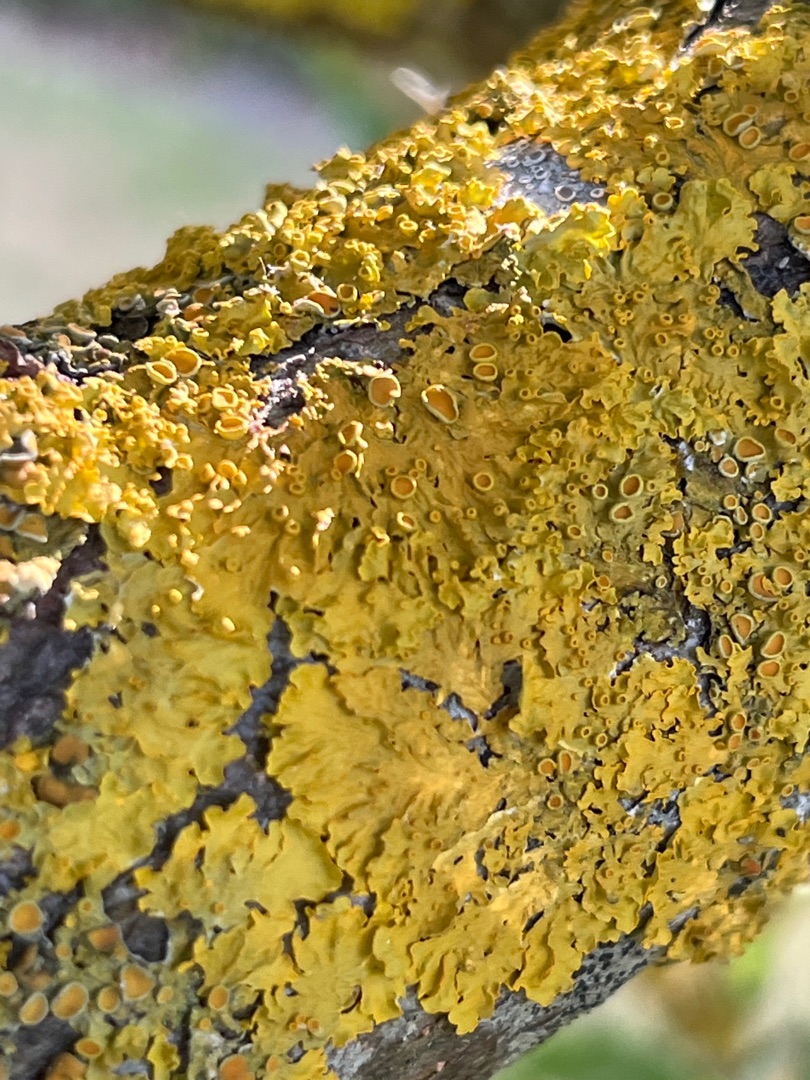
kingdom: Fungi
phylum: Ascomycota
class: Lecanoromycetes
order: Teloschistales
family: Teloschistaceae
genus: Xanthoria
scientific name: Xanthoria parietina
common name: Almindelig væggelav
